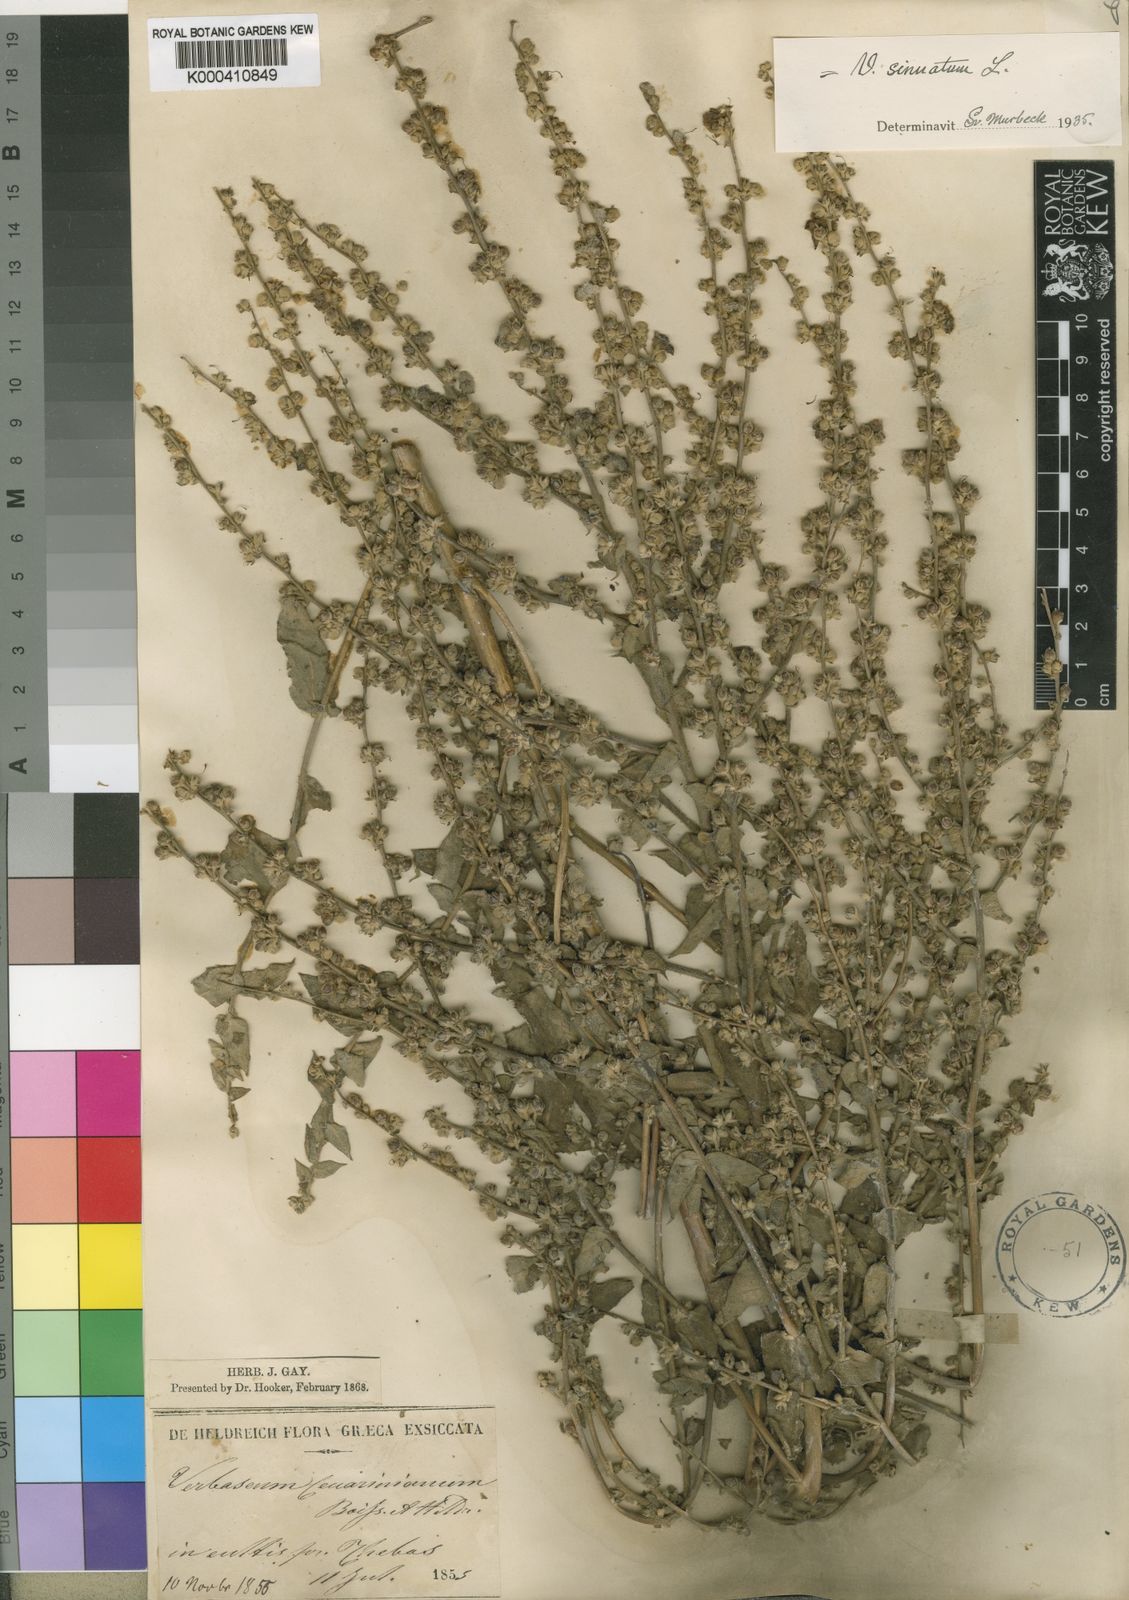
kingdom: Plantae
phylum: Tracheophyta
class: Magnoliopsida
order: Lamiales
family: Scrophulariaceae
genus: Verbascum
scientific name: Verbascum sinuatum
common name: Wavyleaf mullein
